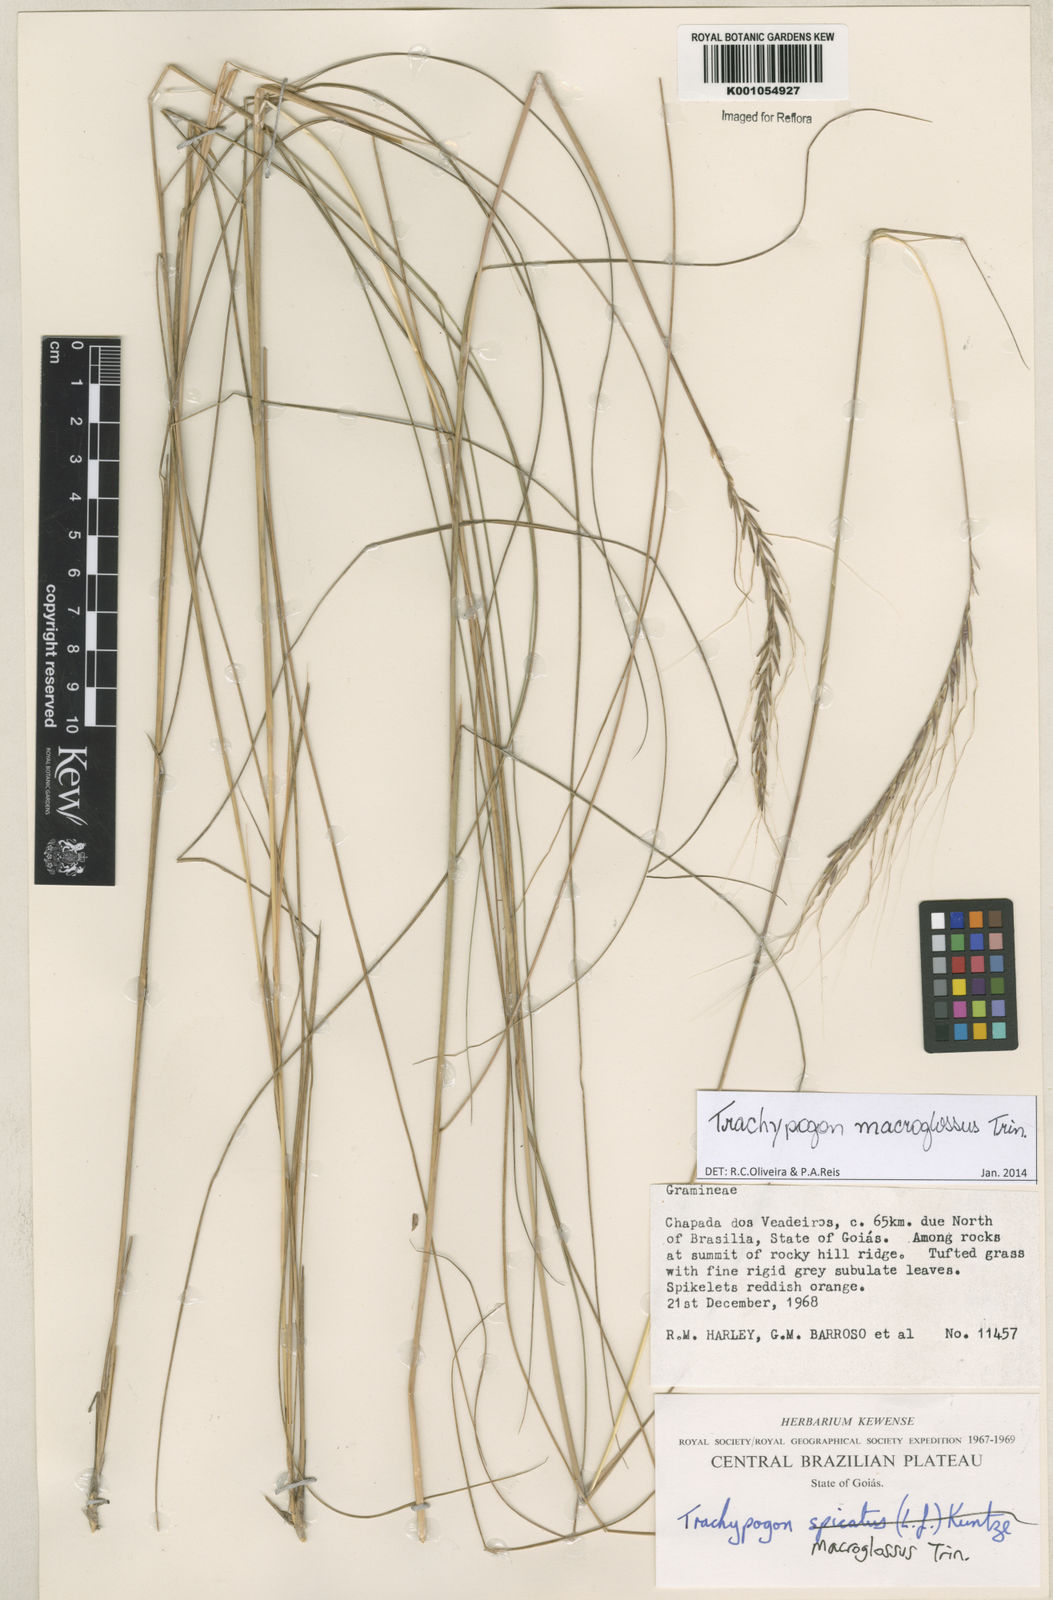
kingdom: Plantae
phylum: Tracheophyta
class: Liliopsida
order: Poales
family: Poaceae
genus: Trachypogon
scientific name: Trachypogon macroglossus
